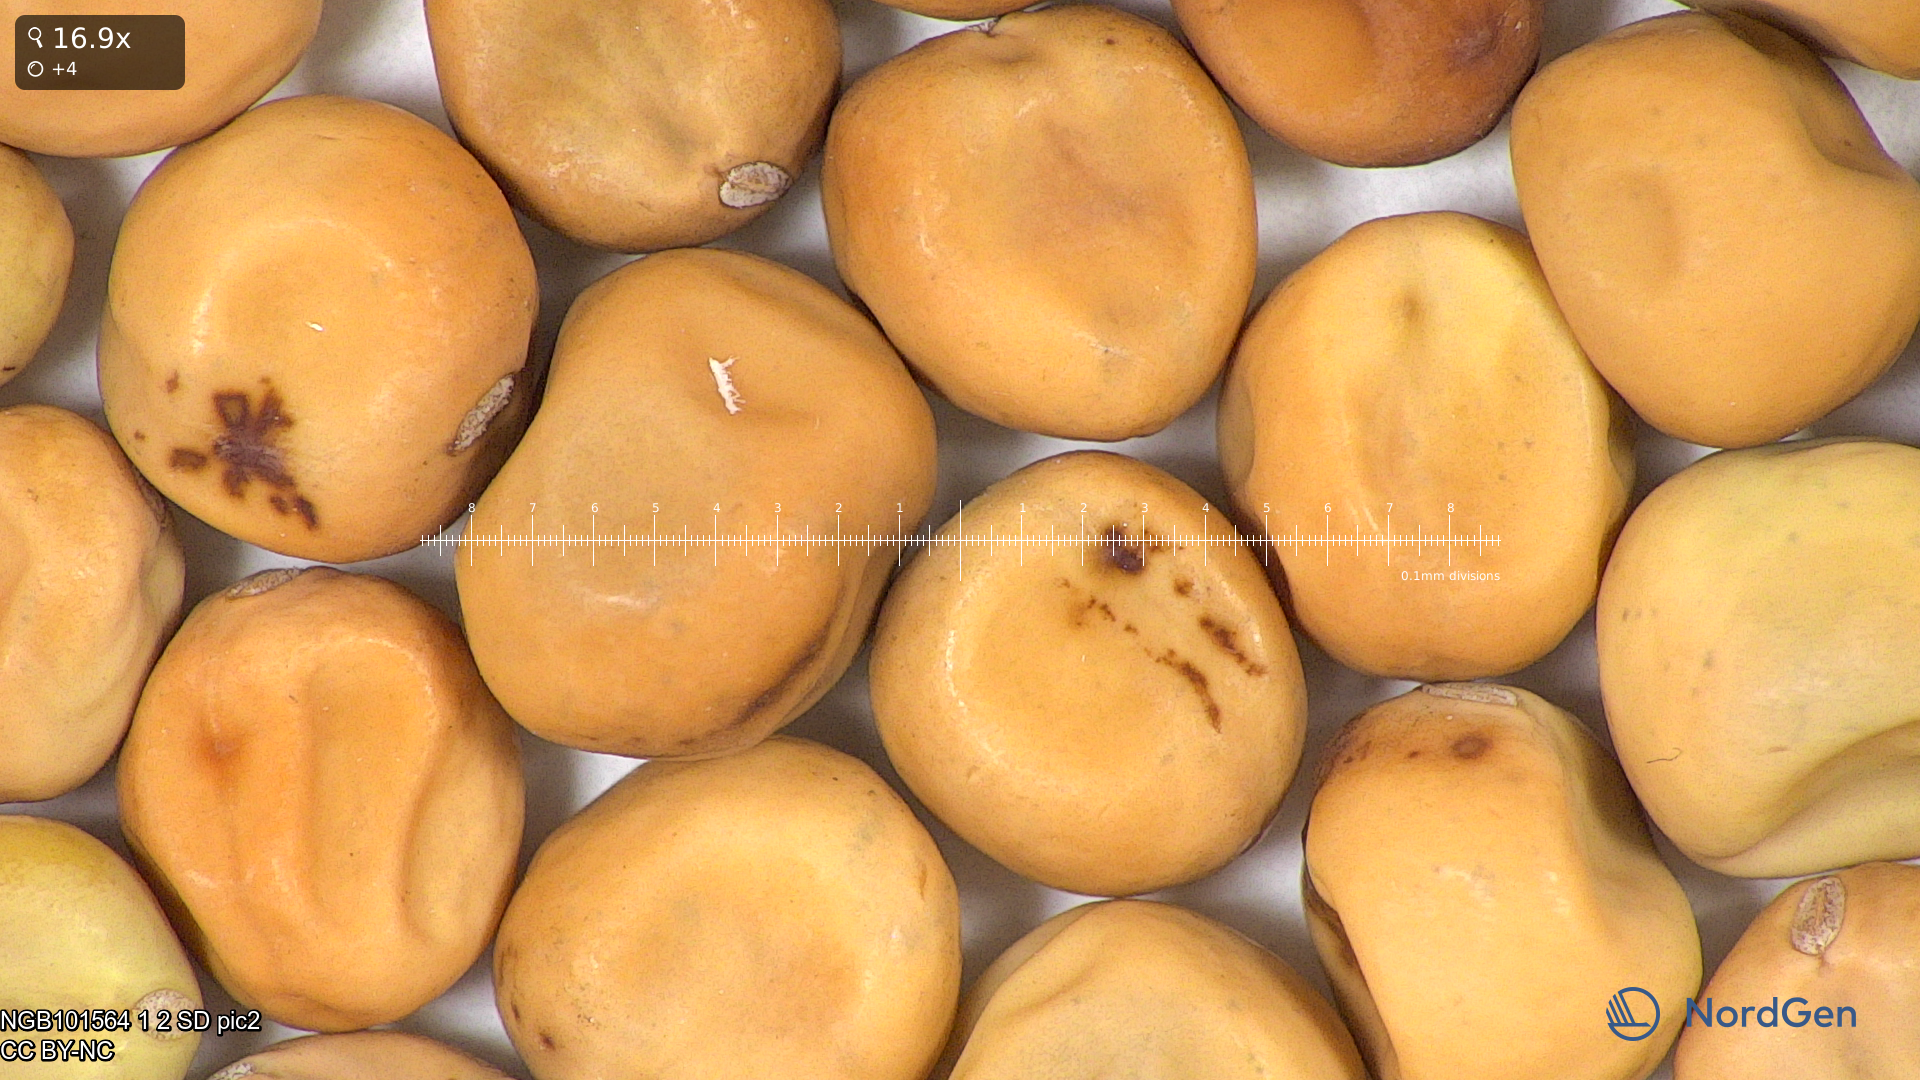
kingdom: Plantae
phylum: Tracheophyta
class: Magnoliopsida
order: Fabales
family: Fabaceae
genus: Lathyrus
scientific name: Lathyrus oleraceus
